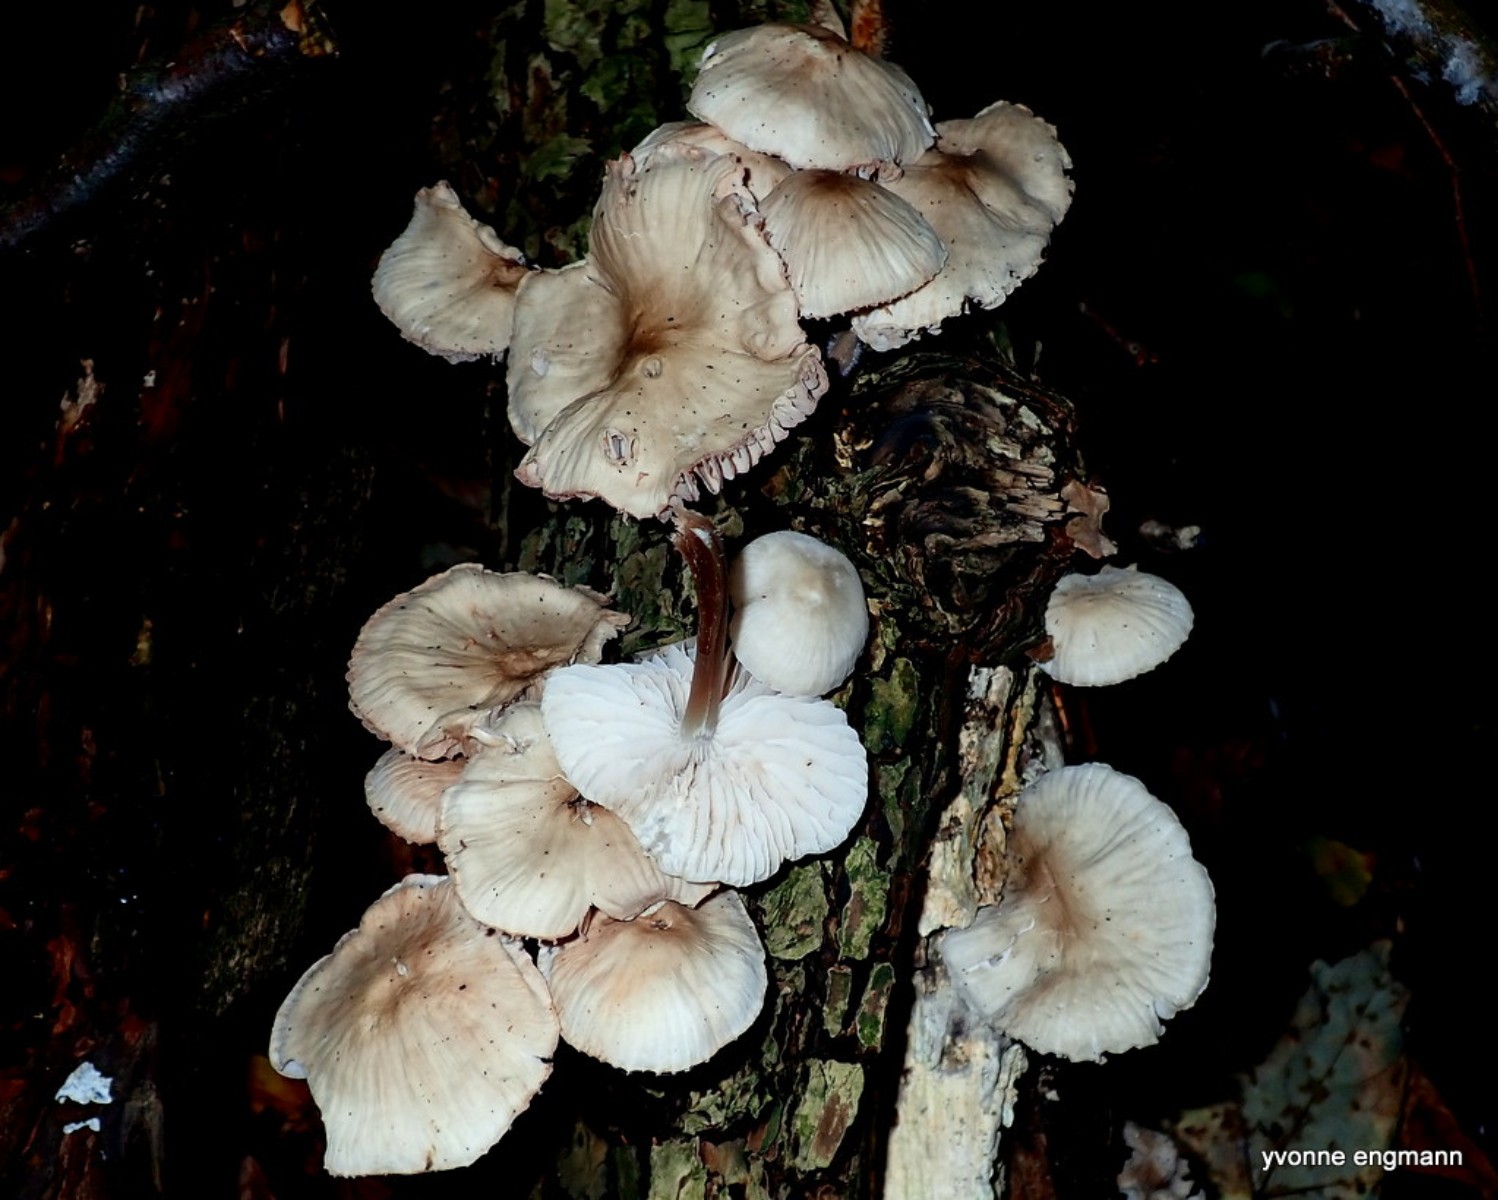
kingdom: Fungi
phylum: Basidiomycota
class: Agaricomycetes
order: Agaricales
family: Mycenaceae
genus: Mycena
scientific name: Mycena galericulata
